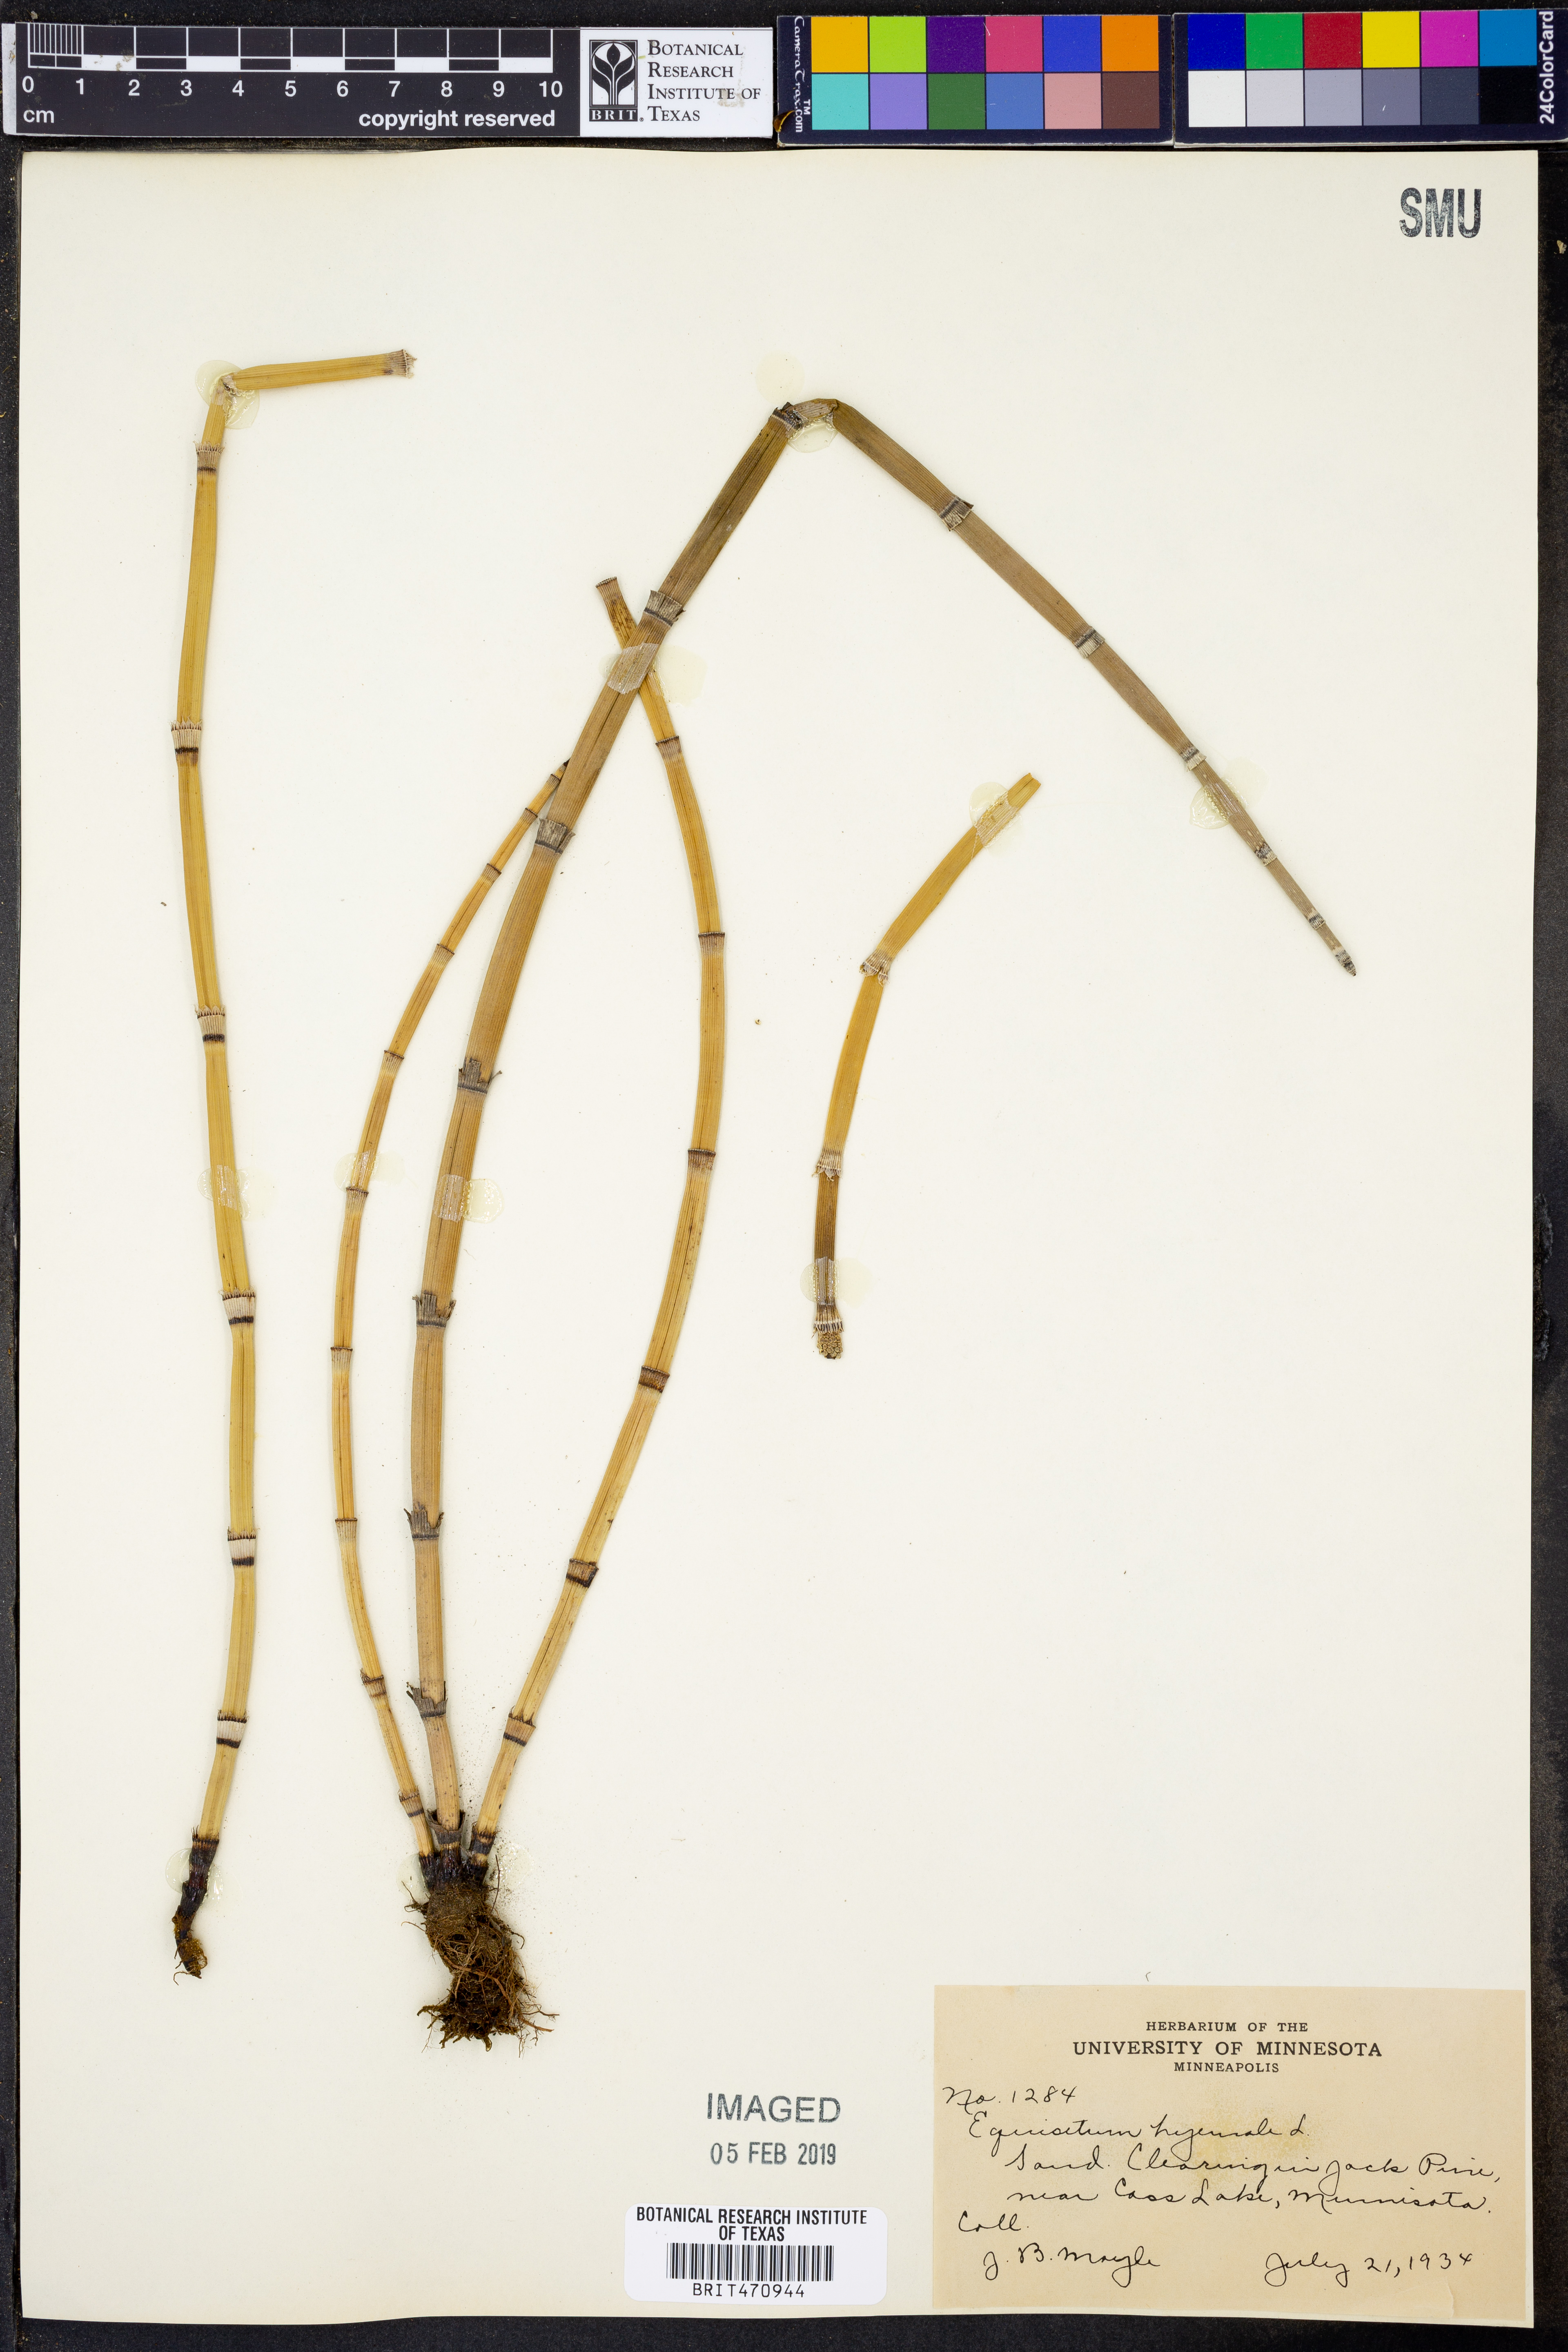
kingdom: Plantae
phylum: Tracheophyta
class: Polypodiopsida
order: Equisetales
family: Equisetaceae
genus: Equisetum
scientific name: Equisetum hyemale
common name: Rough horsetail
